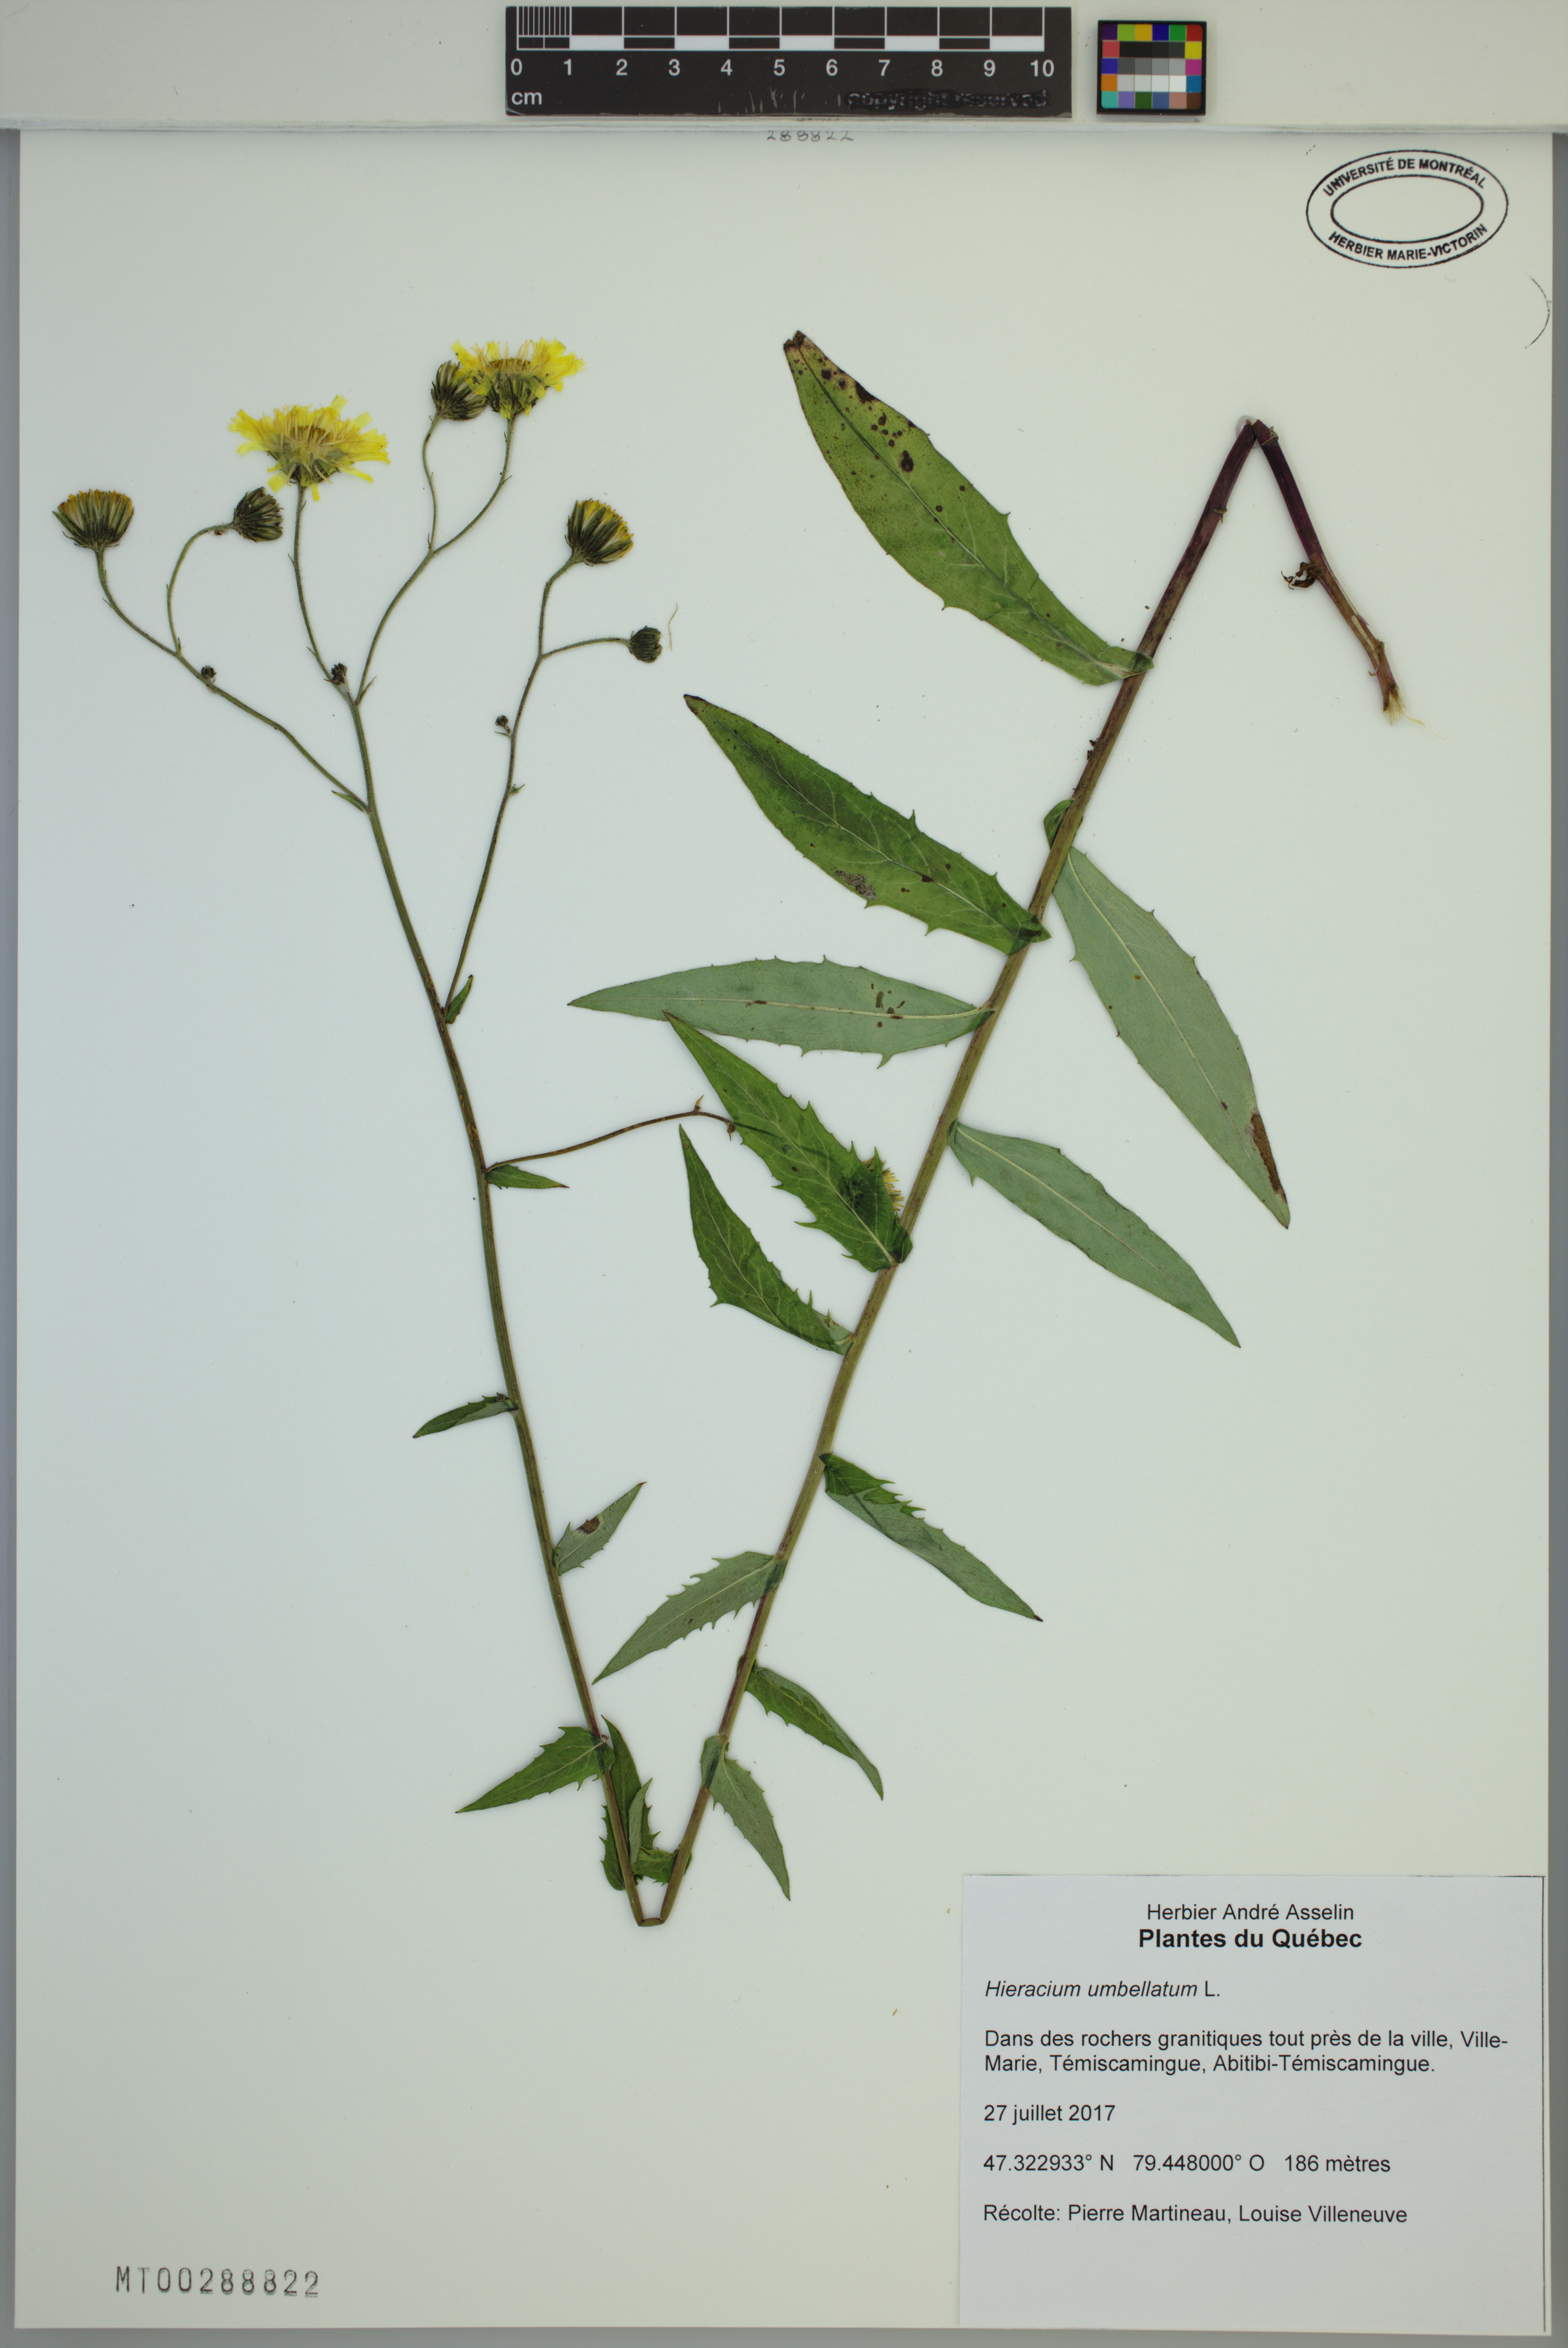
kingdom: Plantae
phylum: Tracheophyta
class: Magnoliopsida
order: Asterales
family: Asteraceae
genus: Hieracium
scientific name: Hieracium umbellatum
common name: Northern hawkweed
